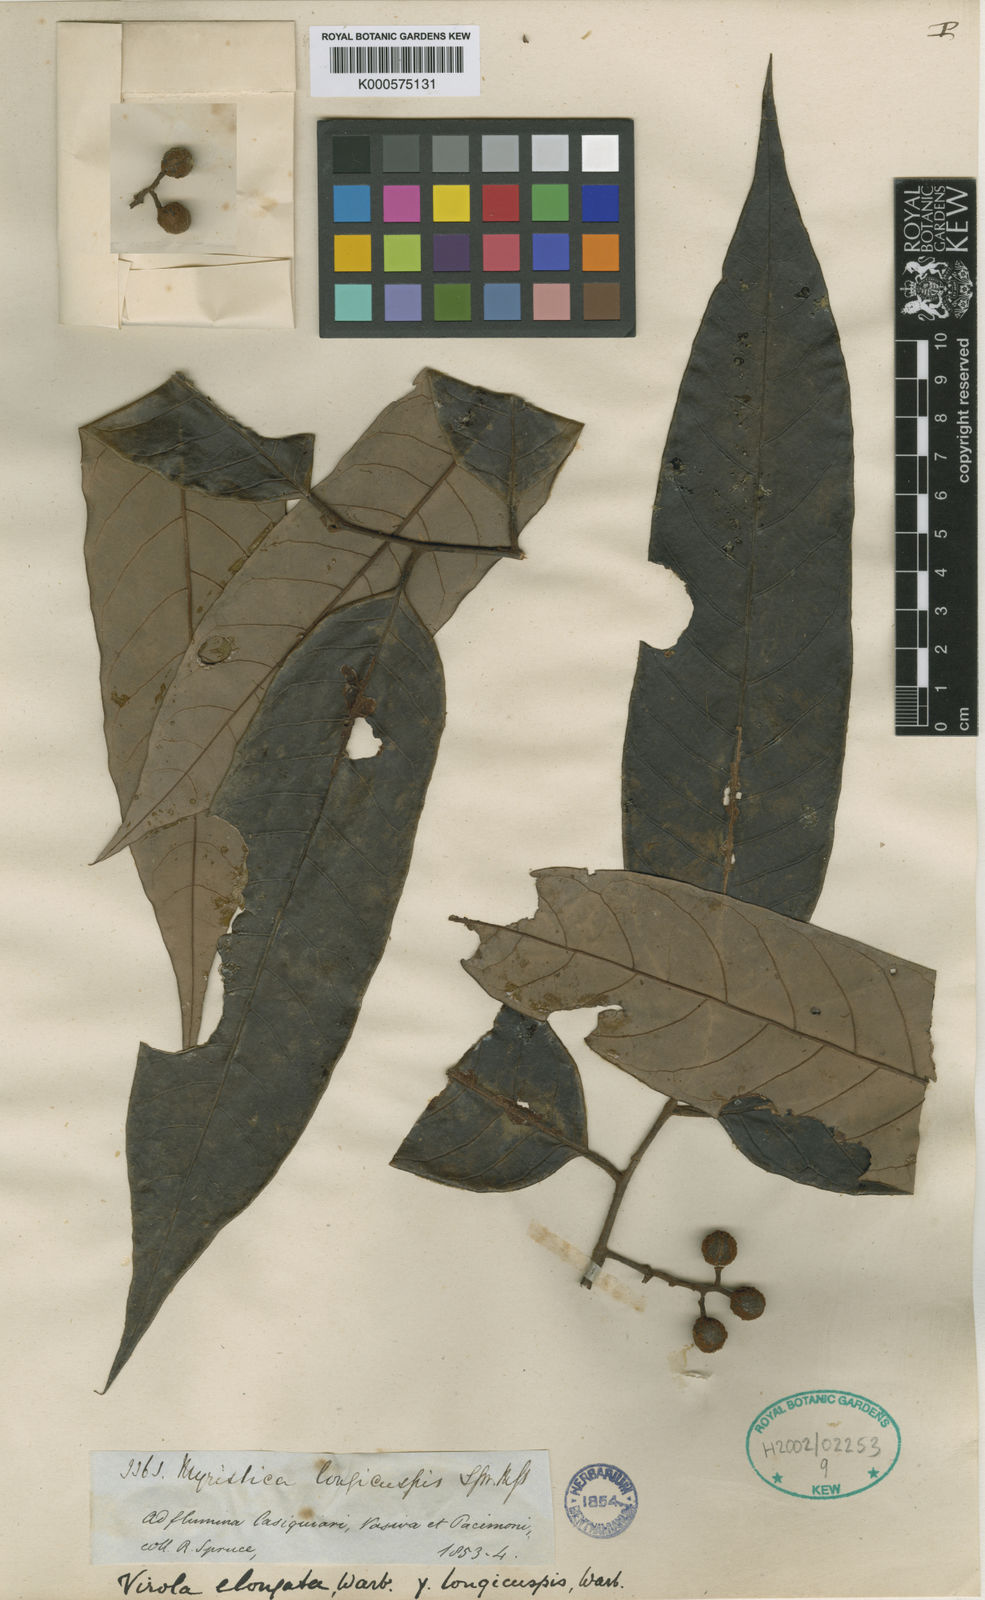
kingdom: Plantae
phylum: Tracheophyta
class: Magnoliopsida
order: Magnoliales
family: Myristicaceae
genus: Virola
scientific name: Virola elongata
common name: Sacred virola
